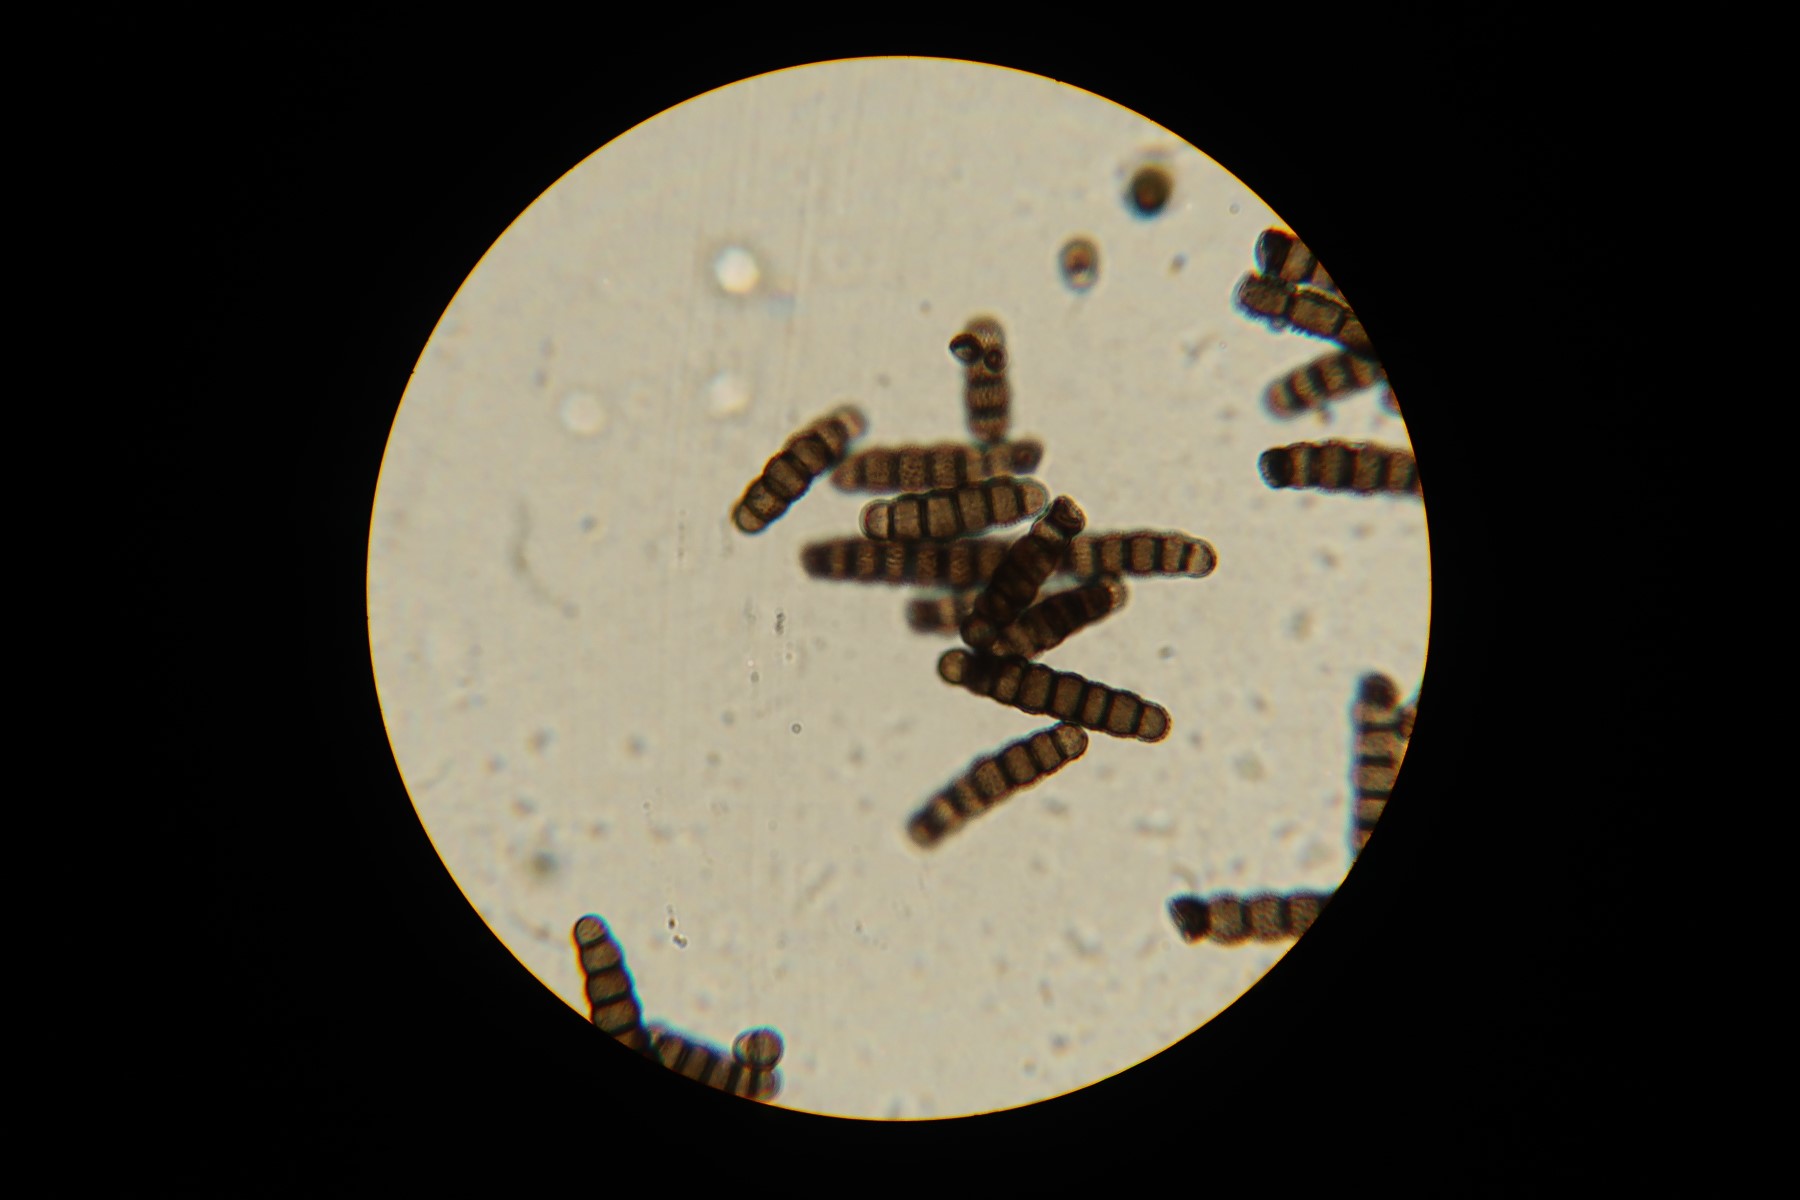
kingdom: Fungi
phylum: Ascomycota
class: Dothideomycetes
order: Pleosporales
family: Torulaceae
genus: Torula
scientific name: Torula herbarum
